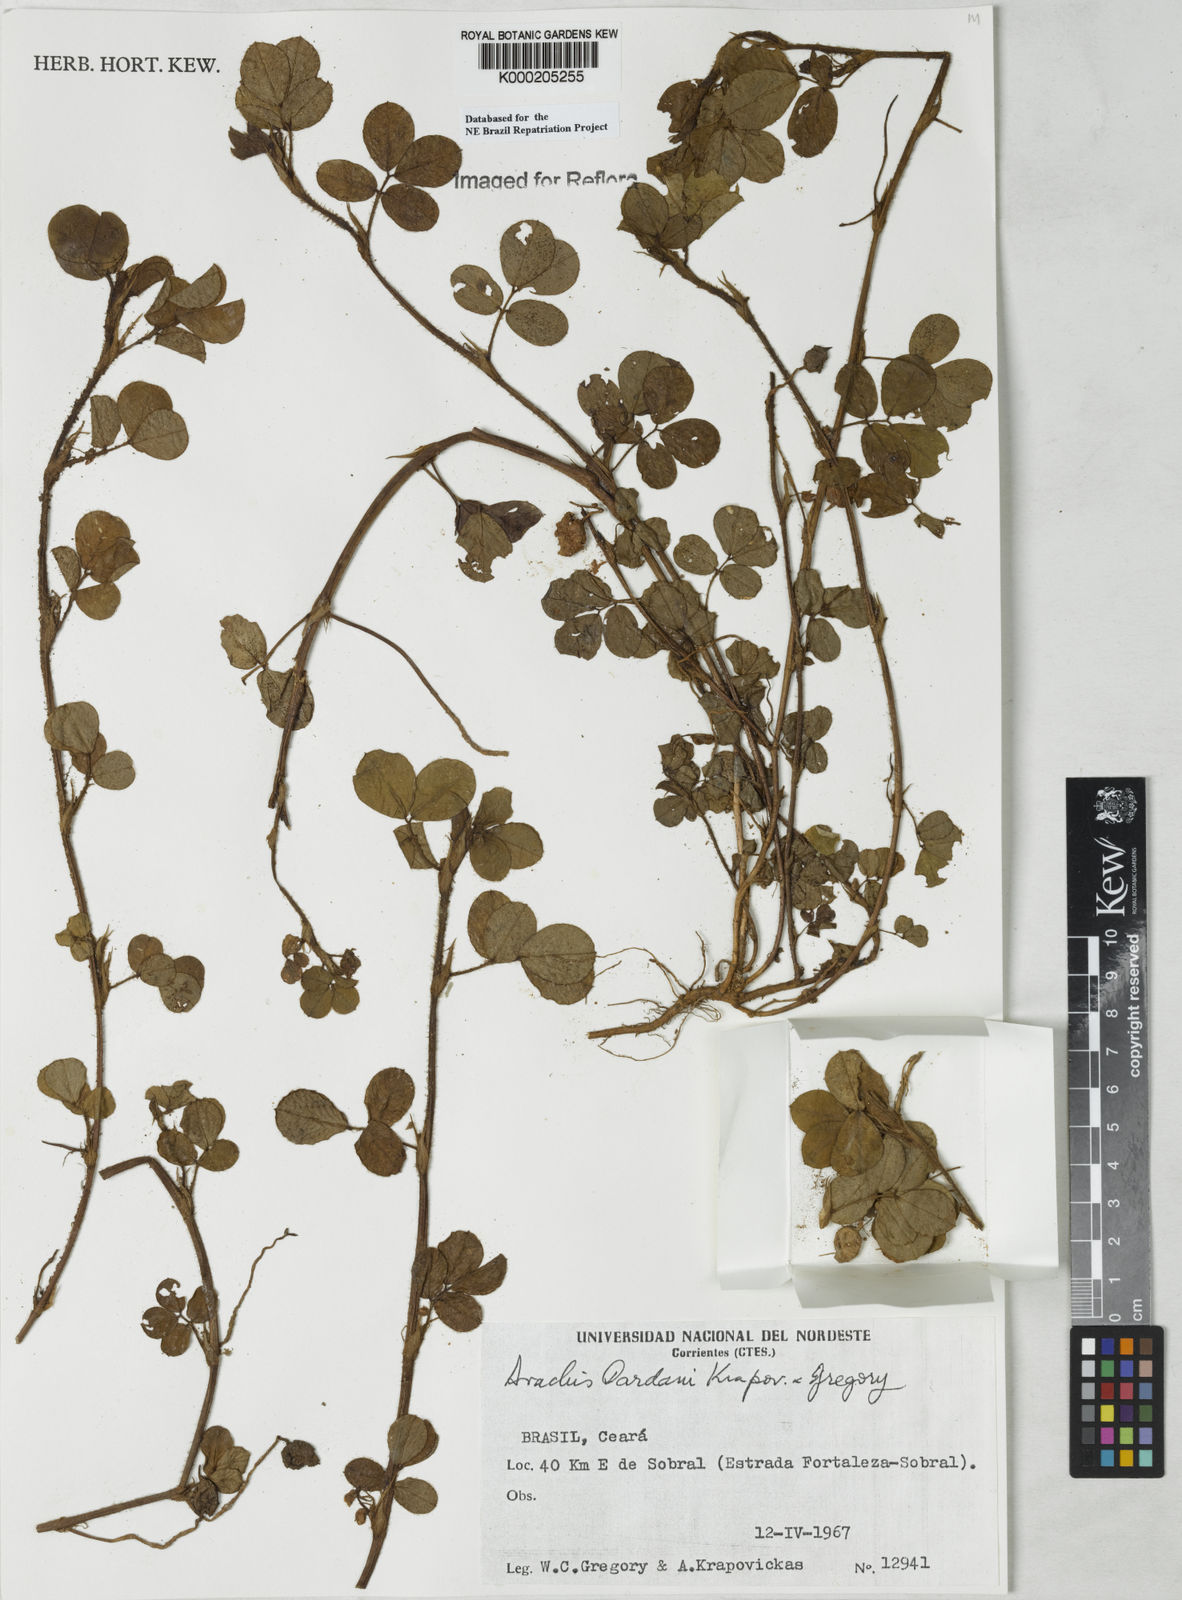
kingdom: Plantae
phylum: Tracheophyta
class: Magnoliopsida
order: Fabales
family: Fabaceae
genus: Arachis
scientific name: Arachis
